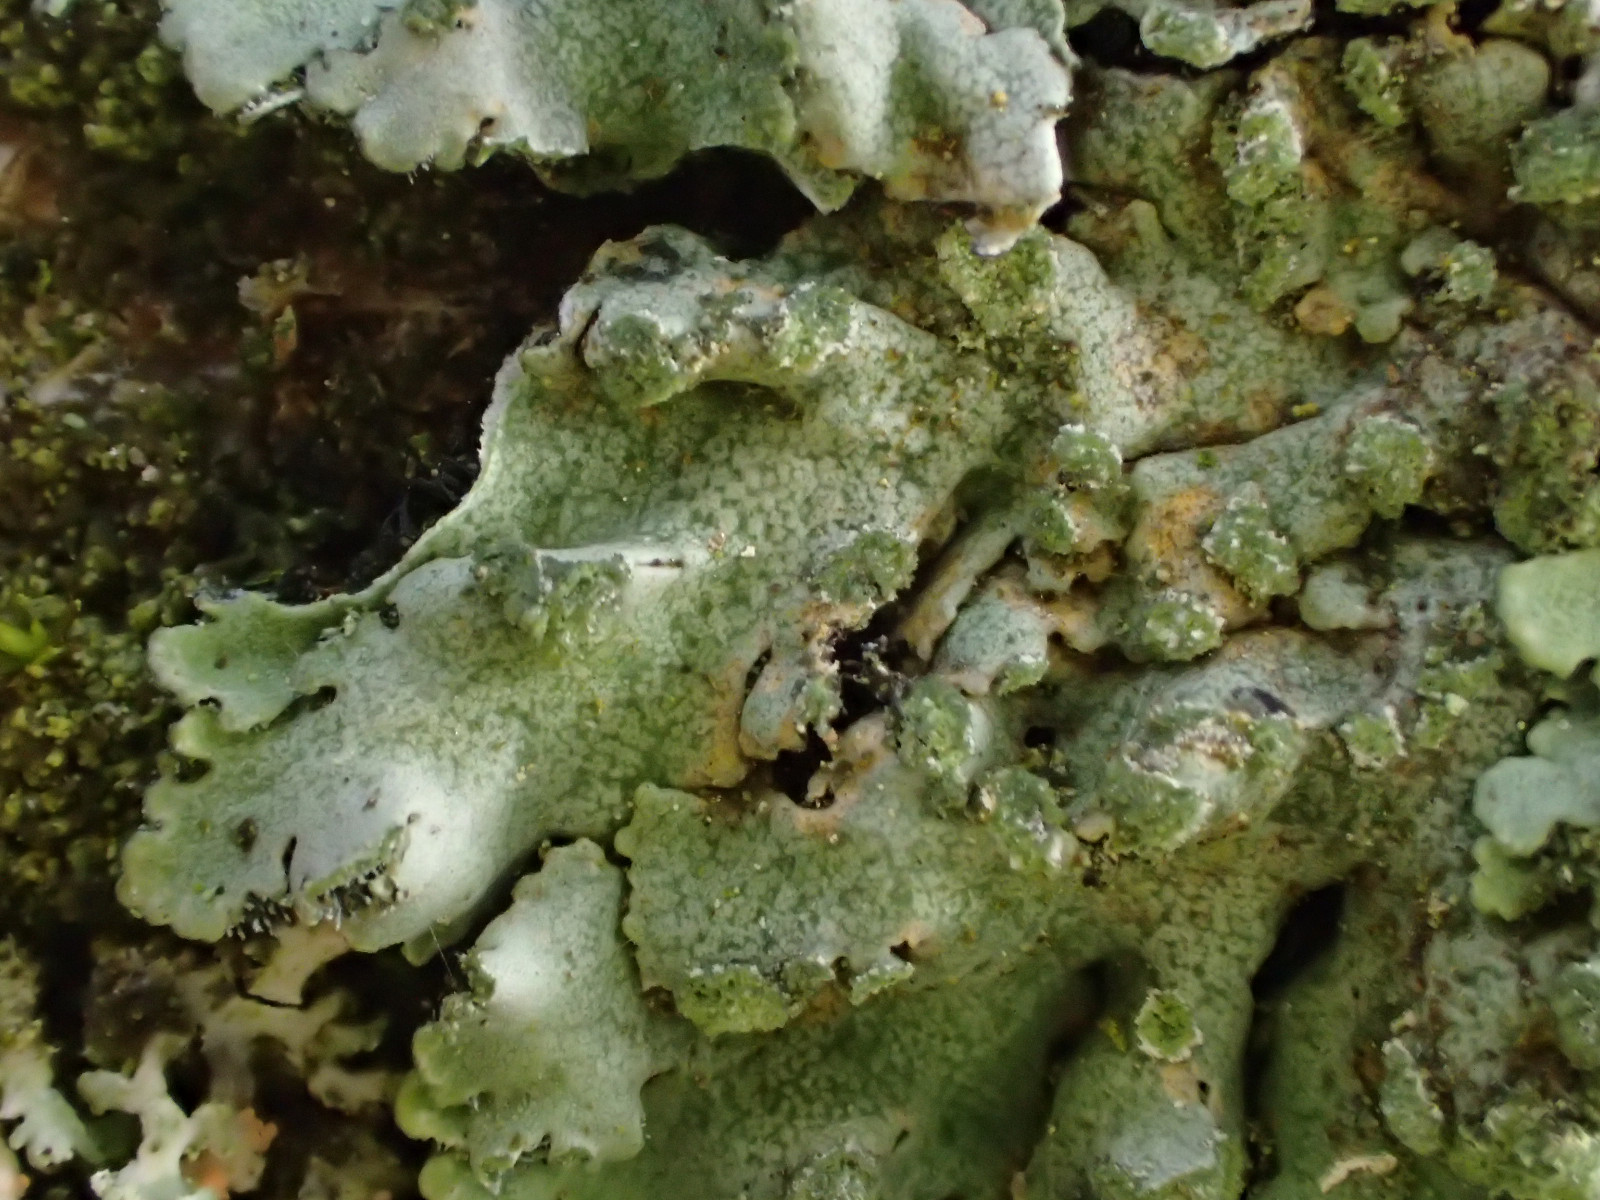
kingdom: Fungi
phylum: Ascomycota
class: Lecanoromycetes
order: Caliciales
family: Physciaceae
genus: Poeltonia
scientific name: Poeltonia grisea
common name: hvidgrå dugrosetlav
